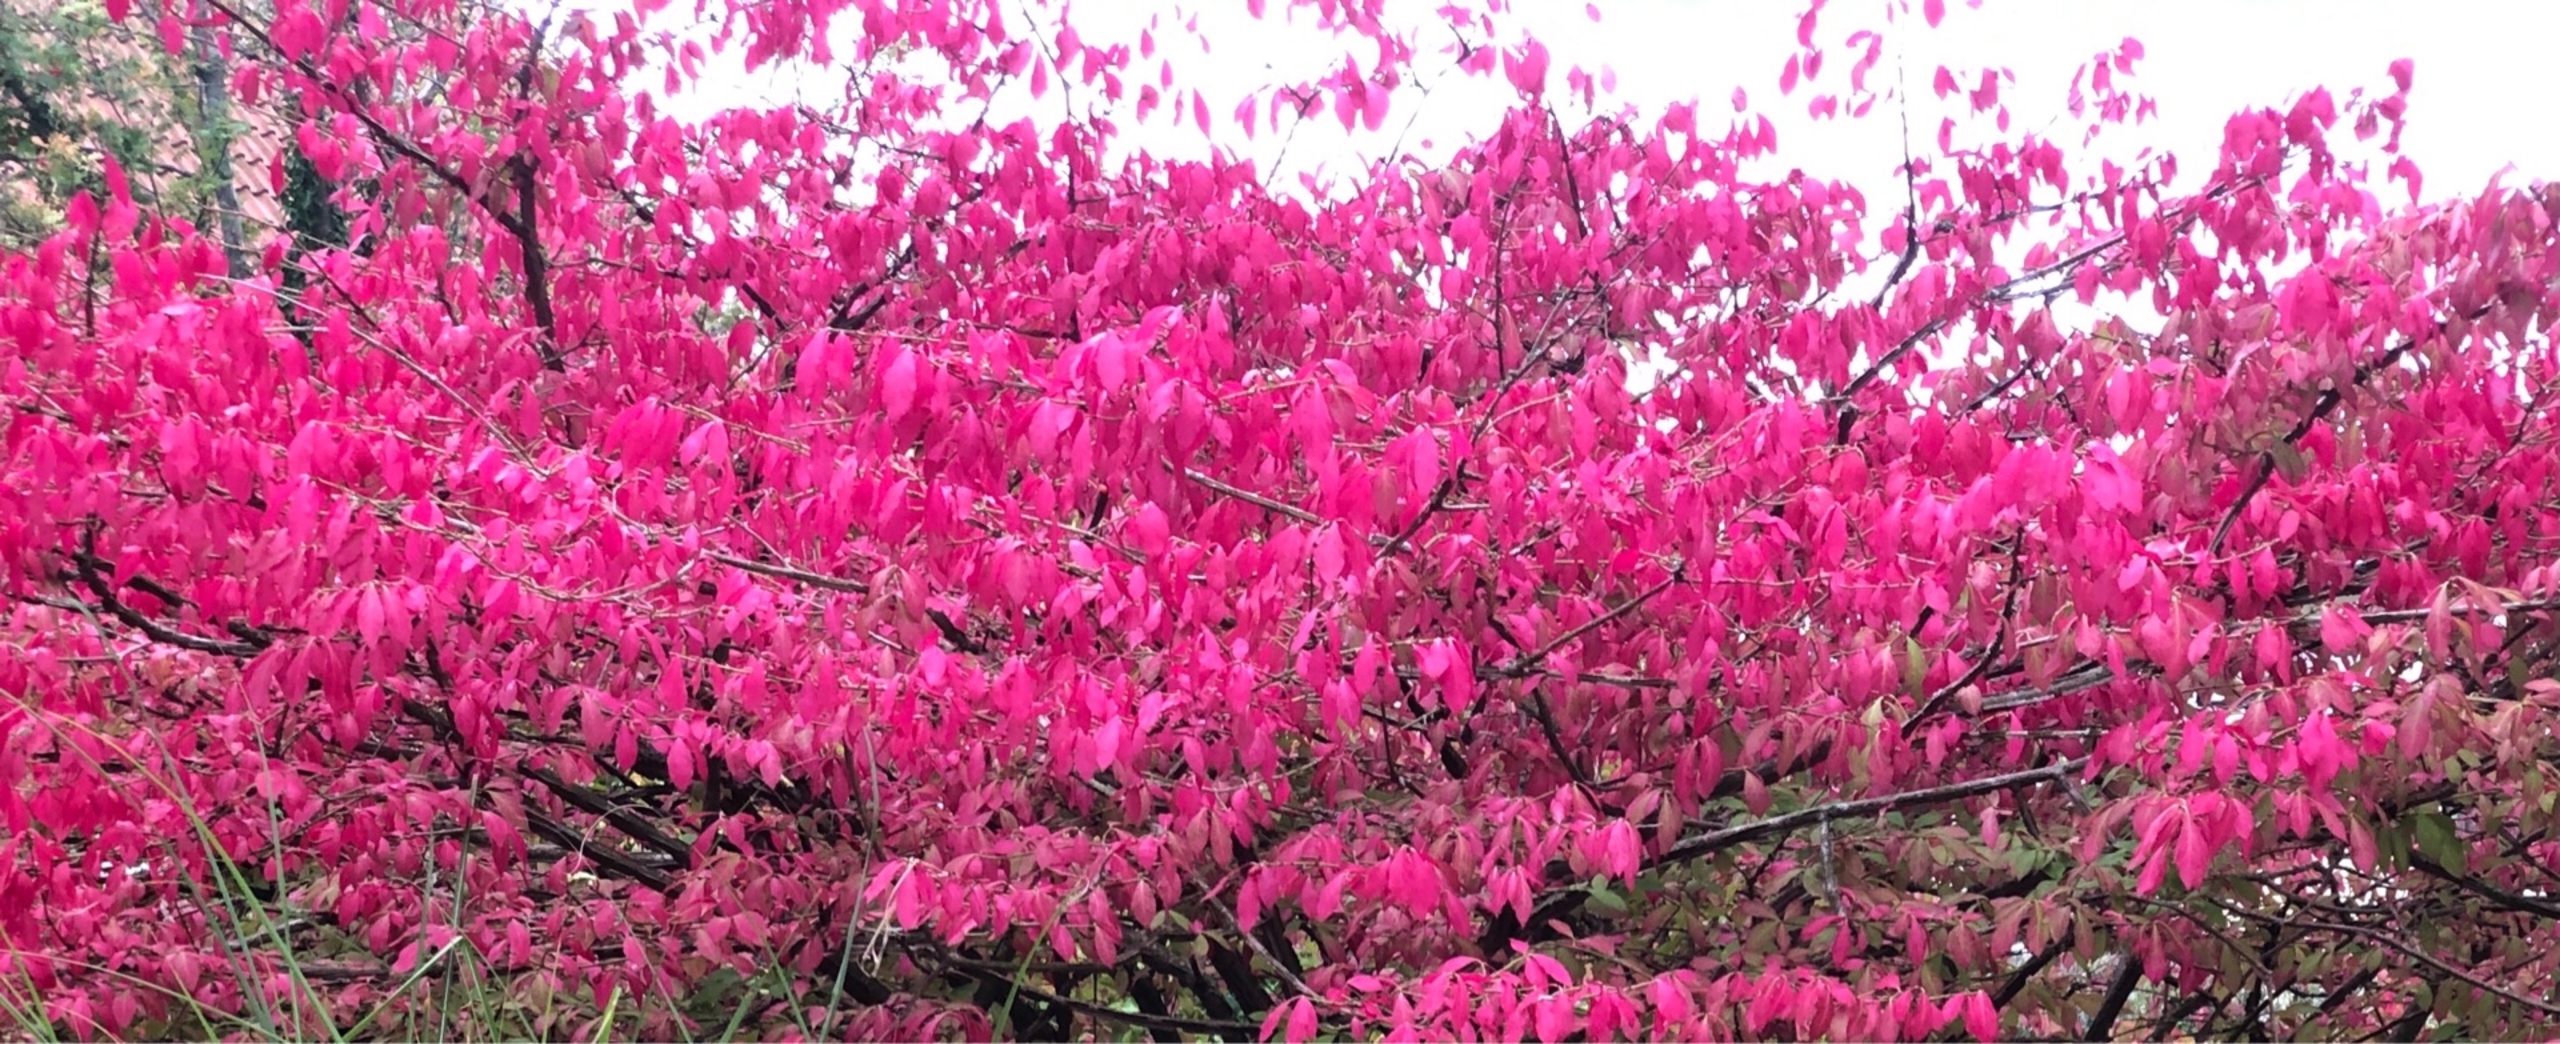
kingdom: Plantae
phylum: Tracheophyta
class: Magnoliopsida
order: Celastrales
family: Celastraceae
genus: Euonymus
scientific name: Euonymus europaeus
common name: Benved
